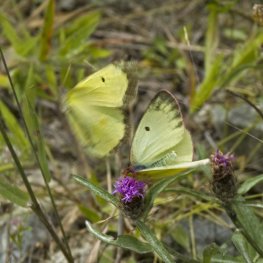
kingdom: Animalia
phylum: Arthropoda
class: Insecta
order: Lepidoptera
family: Pieridae
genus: Colias
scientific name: Colias interior
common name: Pink-edged Sulphur
